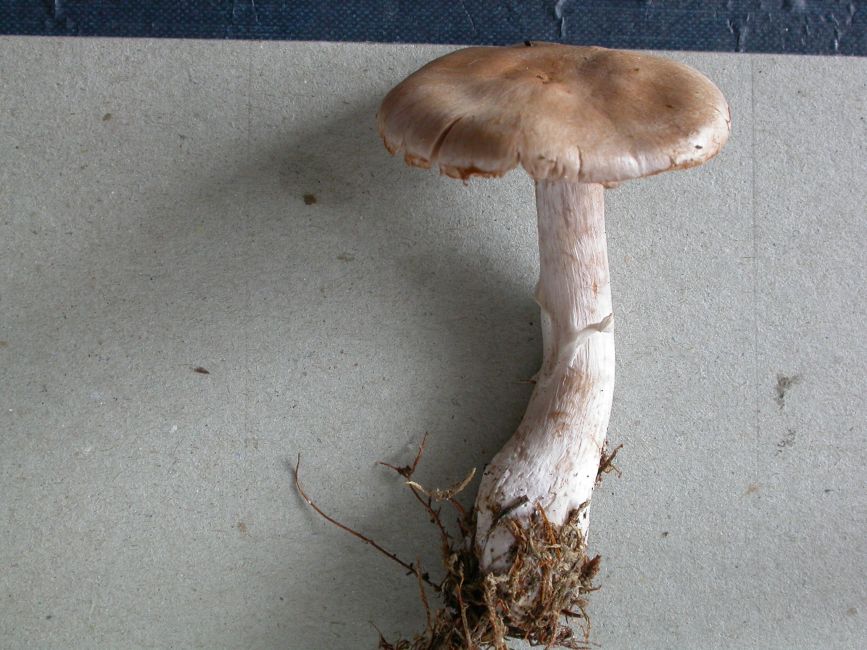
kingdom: Fungi
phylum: Basidiomycota
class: Agaricomycetes
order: Agaricales
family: Cortinariaceae
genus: Cortinarius
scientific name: Cortinarius quarciticus
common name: kvarts-slørhat
